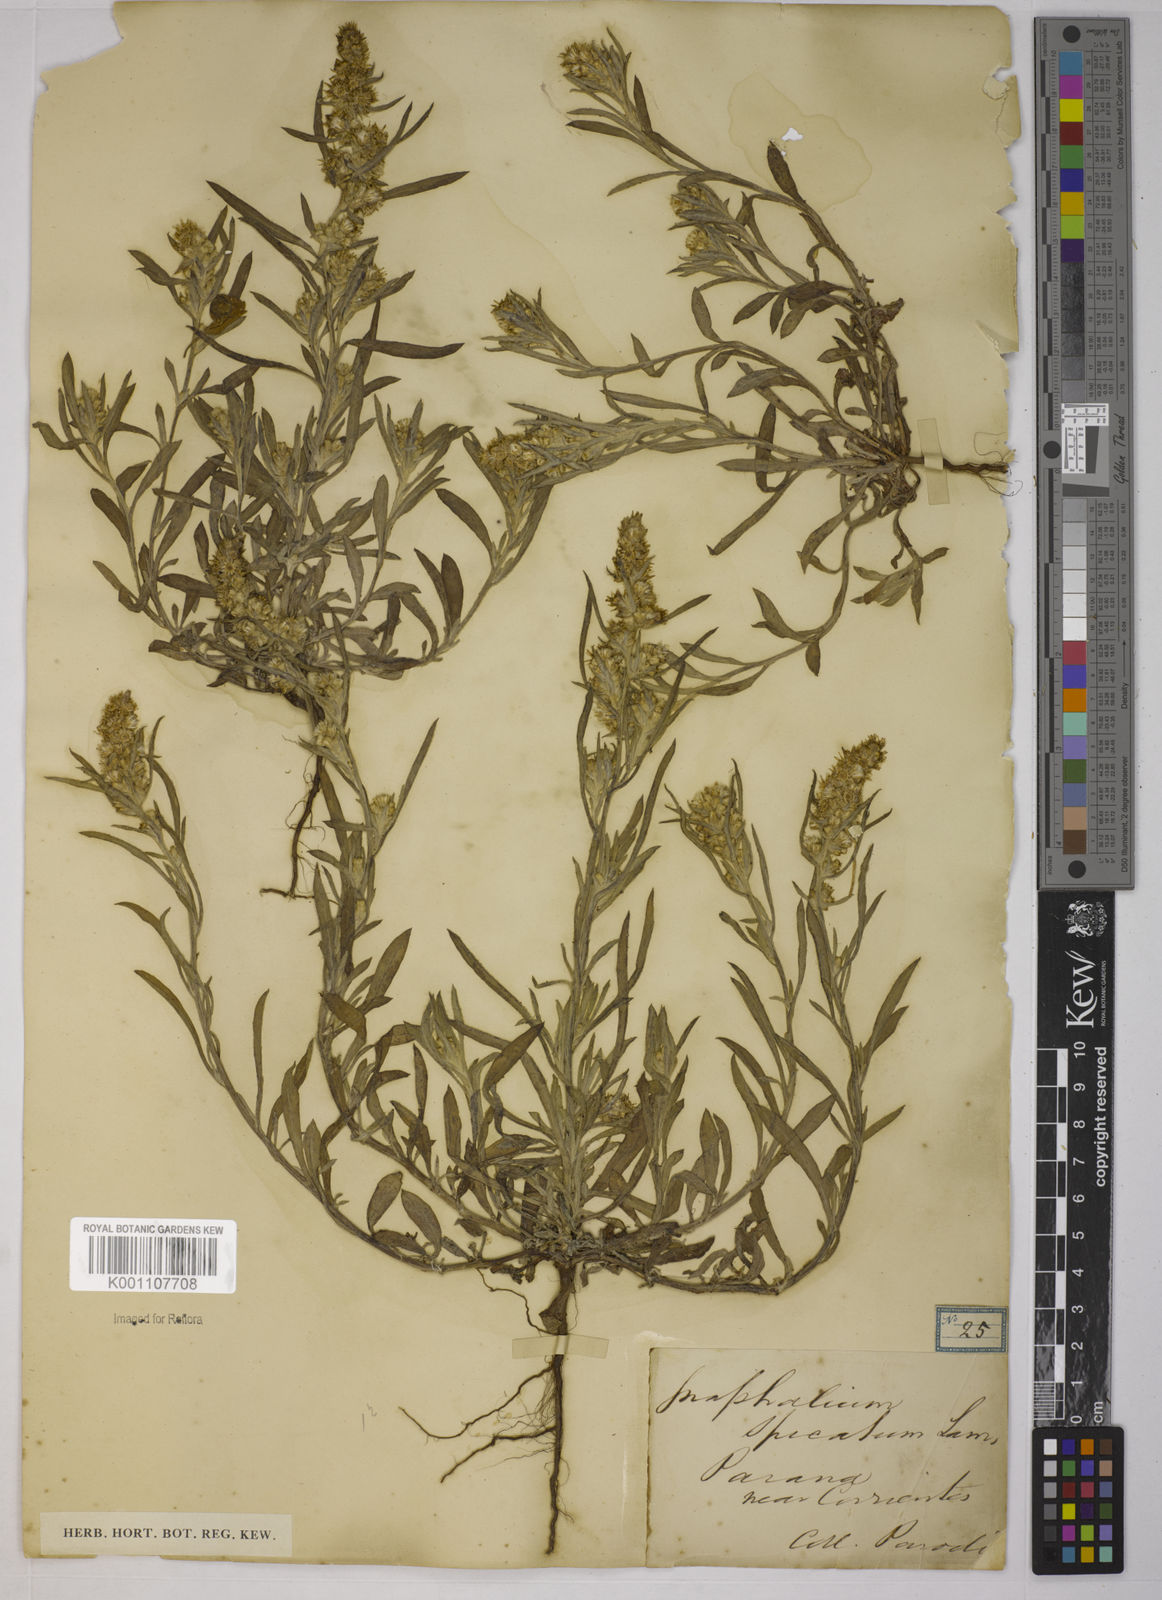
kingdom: Plantae
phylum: Tracheophyta
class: Magnoliopsida
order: Asterales
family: Asteraceae
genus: Pterocaulon
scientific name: Pterocaulon virgatum
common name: Wand blackroot
